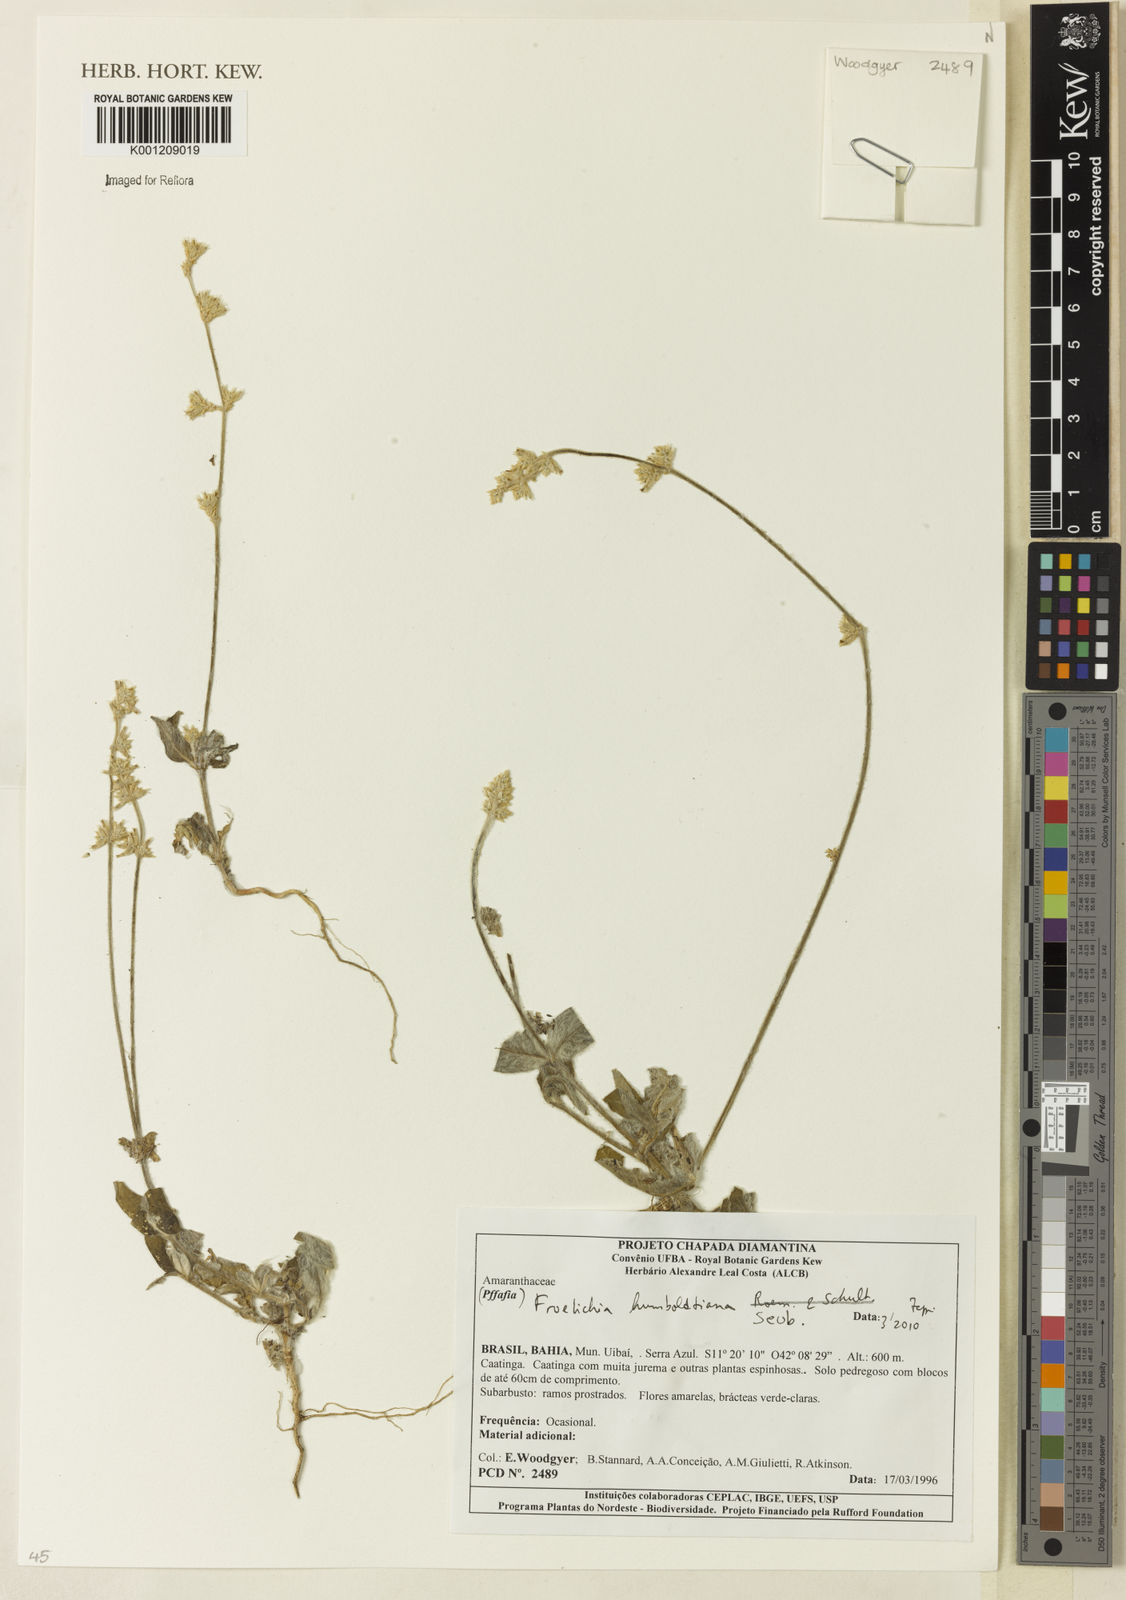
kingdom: Plantae
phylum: Tracheophyta
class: Magnoliopsida
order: Caryophyllales
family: Amaranthaceae
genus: Froelichia
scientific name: Froelichia humboldtiana
